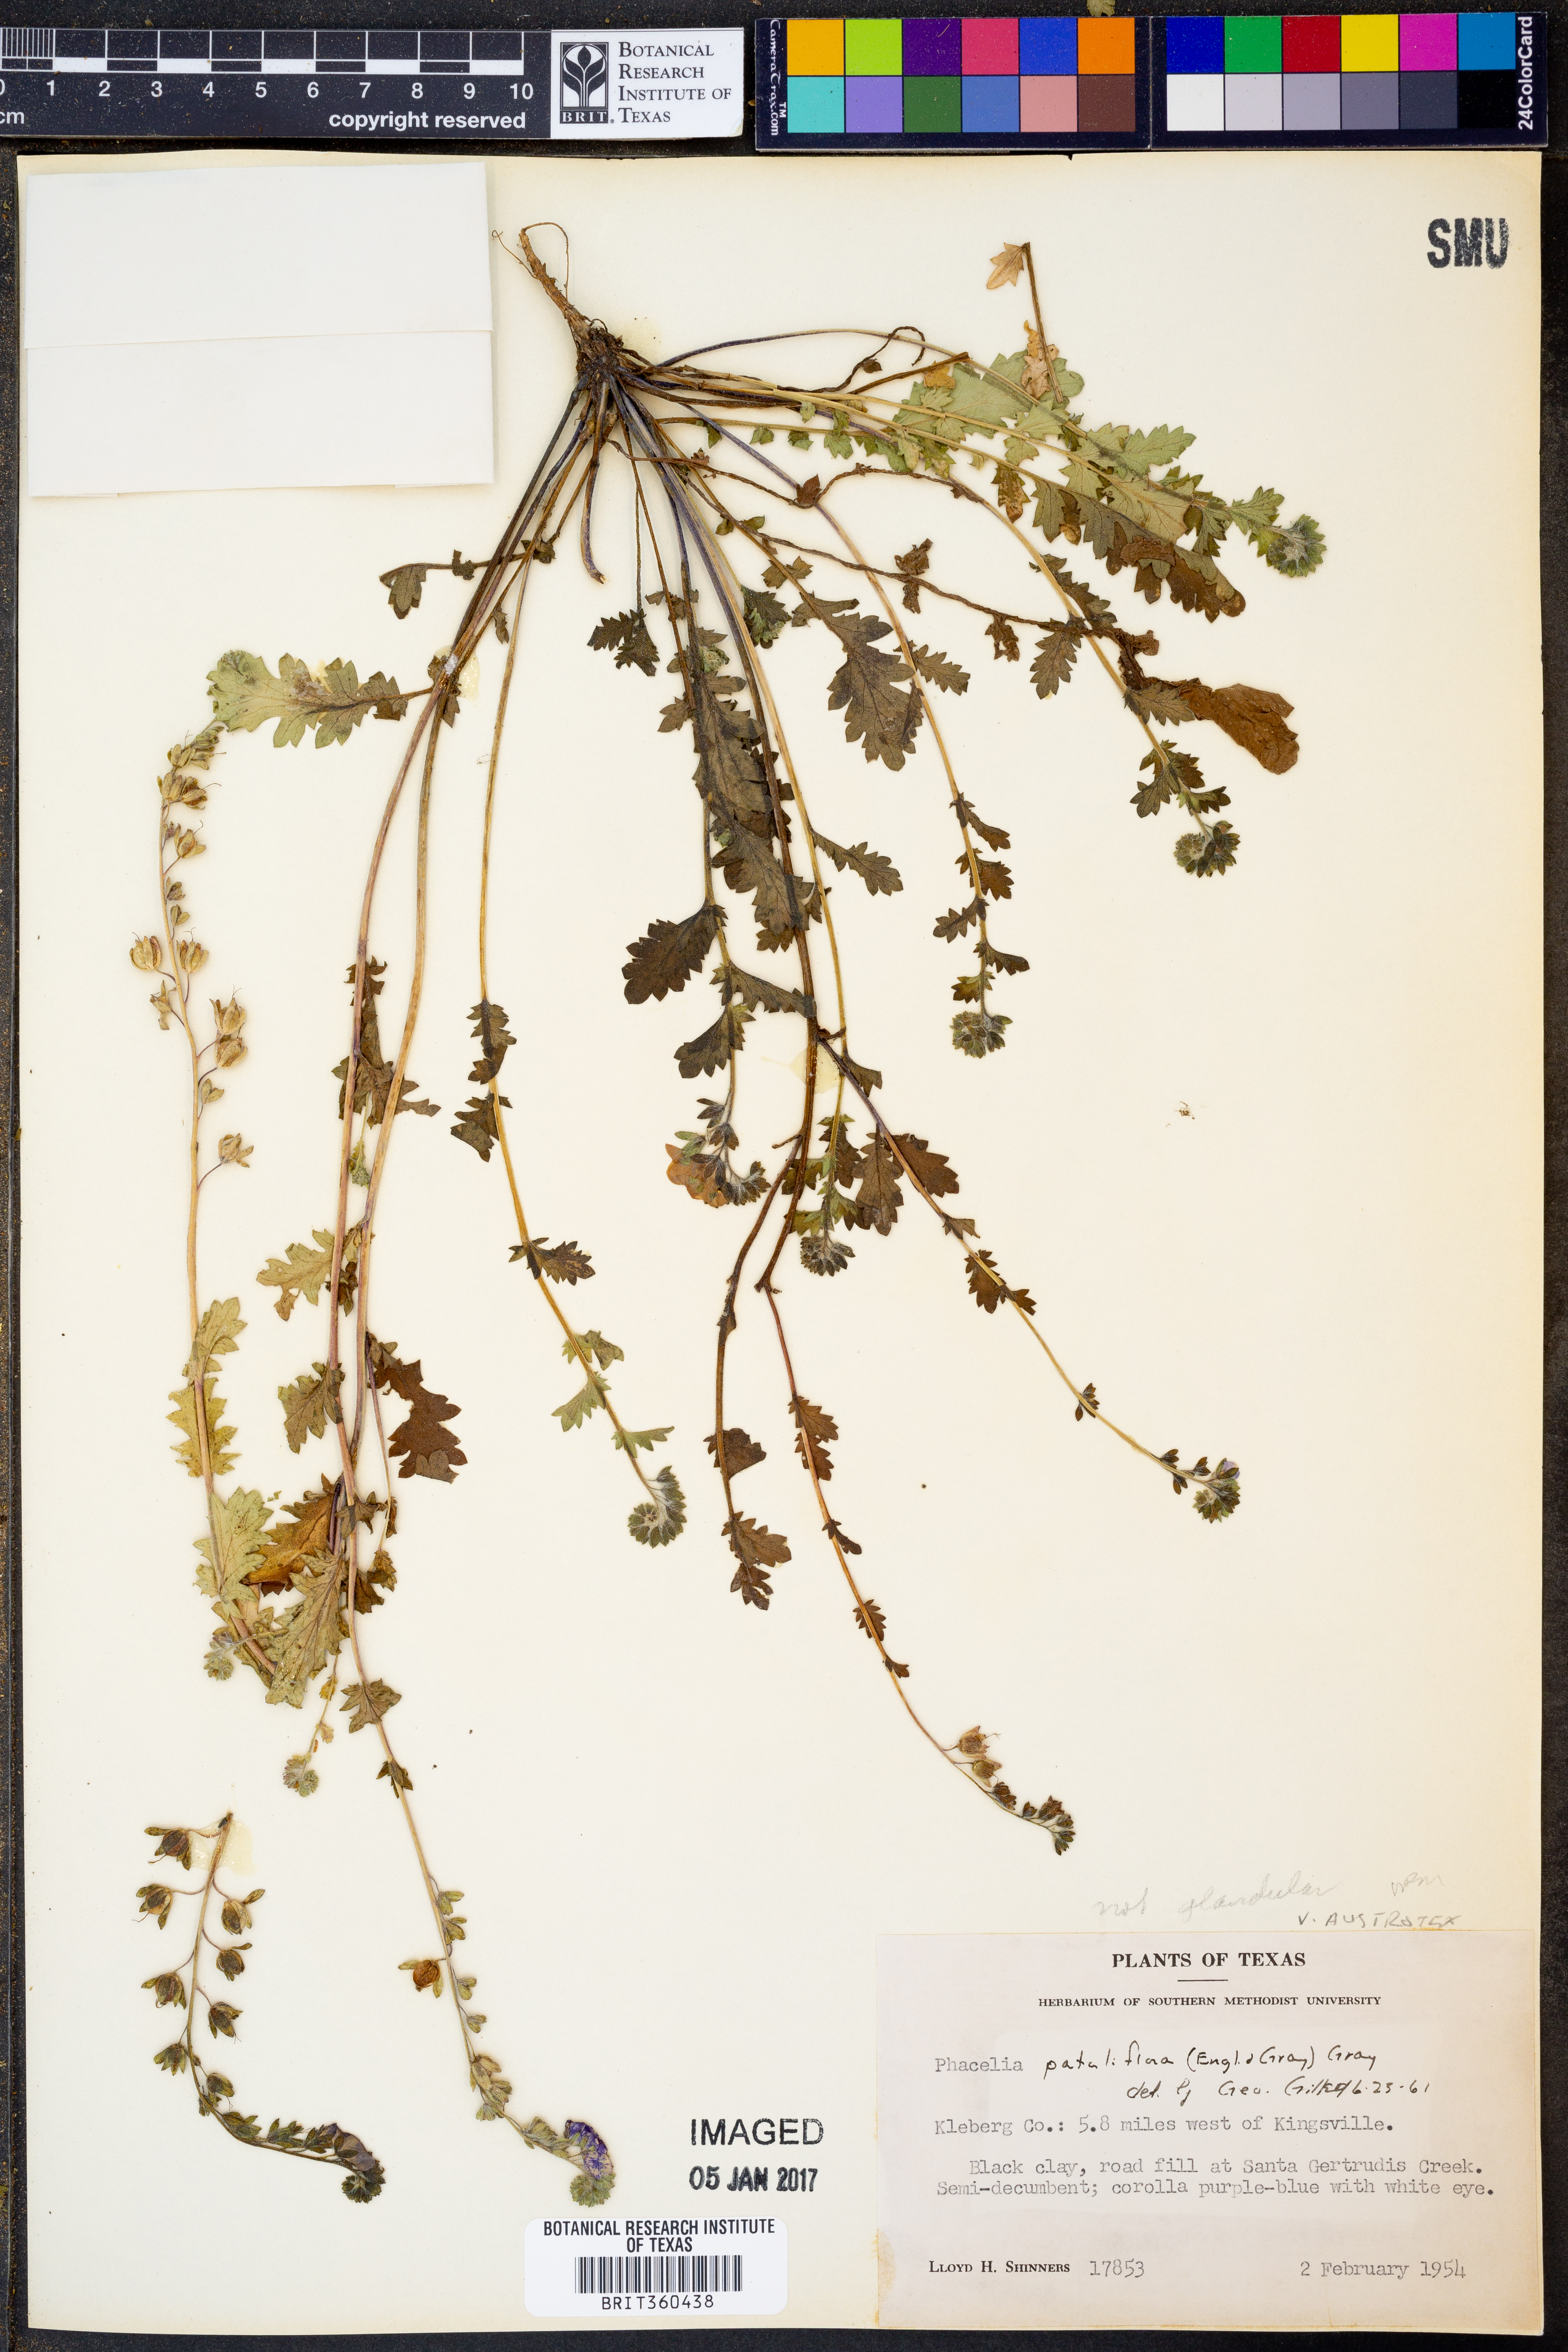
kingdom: Plantae
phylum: Tracheophyta
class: Magnoliopsida
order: Boraginales
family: Hydrophyllaceae
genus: Phacelia
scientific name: Phacelia austrotexana
